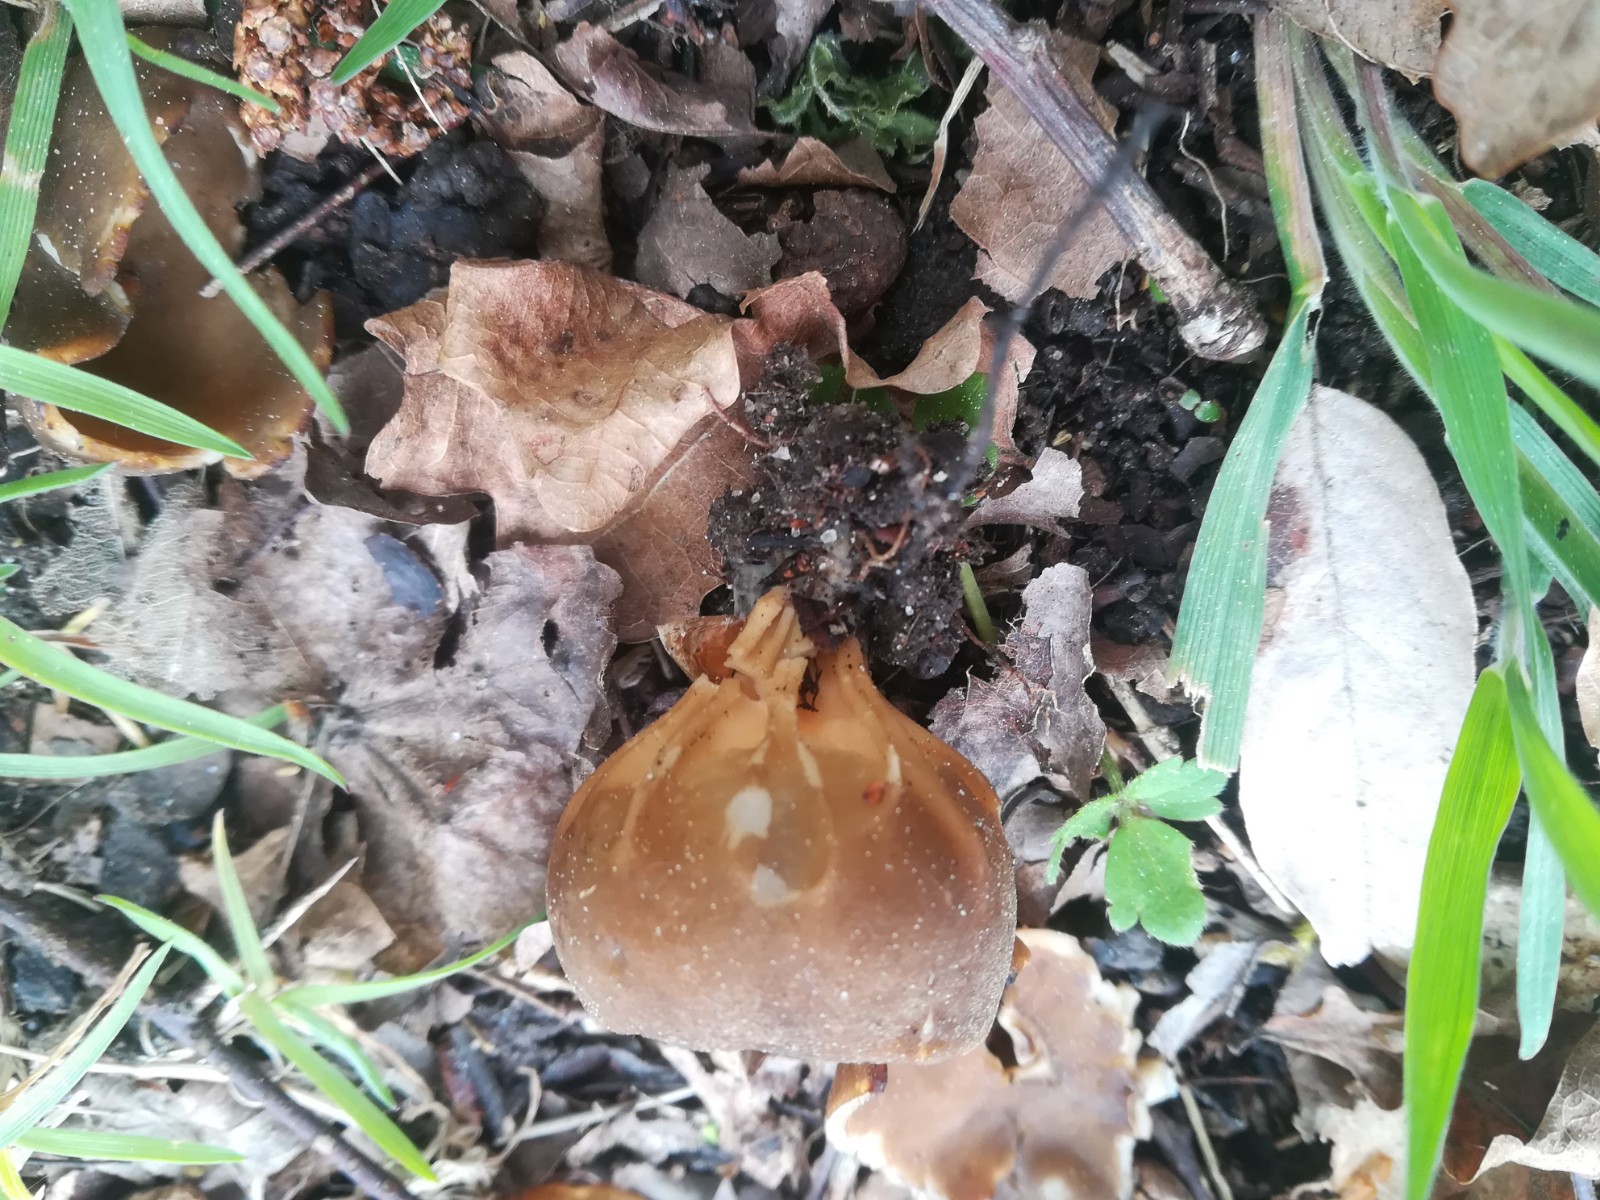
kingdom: Fungi
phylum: Ascomycota
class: Pezizomycetes
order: Pezizales
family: Helvellaceae
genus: Helvella
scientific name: Helvella acetabulum
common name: pokal-foldhat
